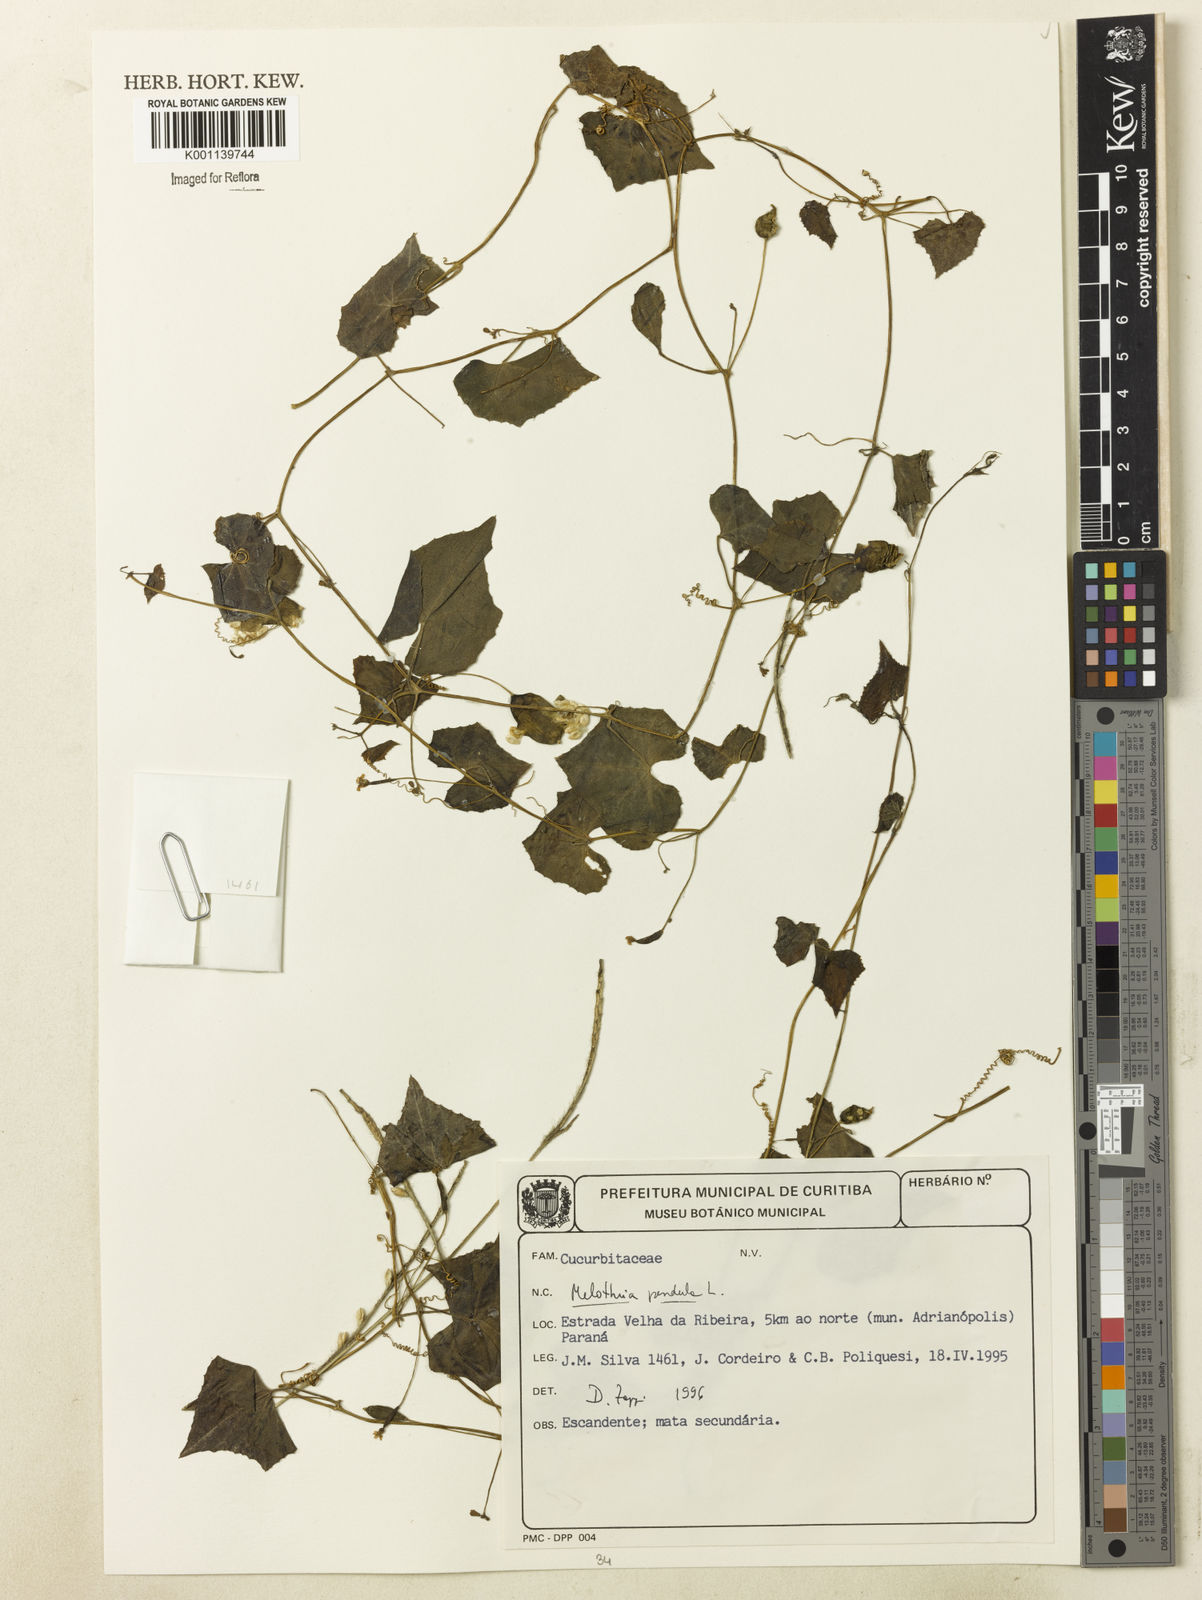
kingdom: Plantae
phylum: Tracheophyta
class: Magnoliopsida
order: Cucurbitales
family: Cucurbitaceae
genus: Melothria
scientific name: Melothria pendula
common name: Creeping-cucumber
